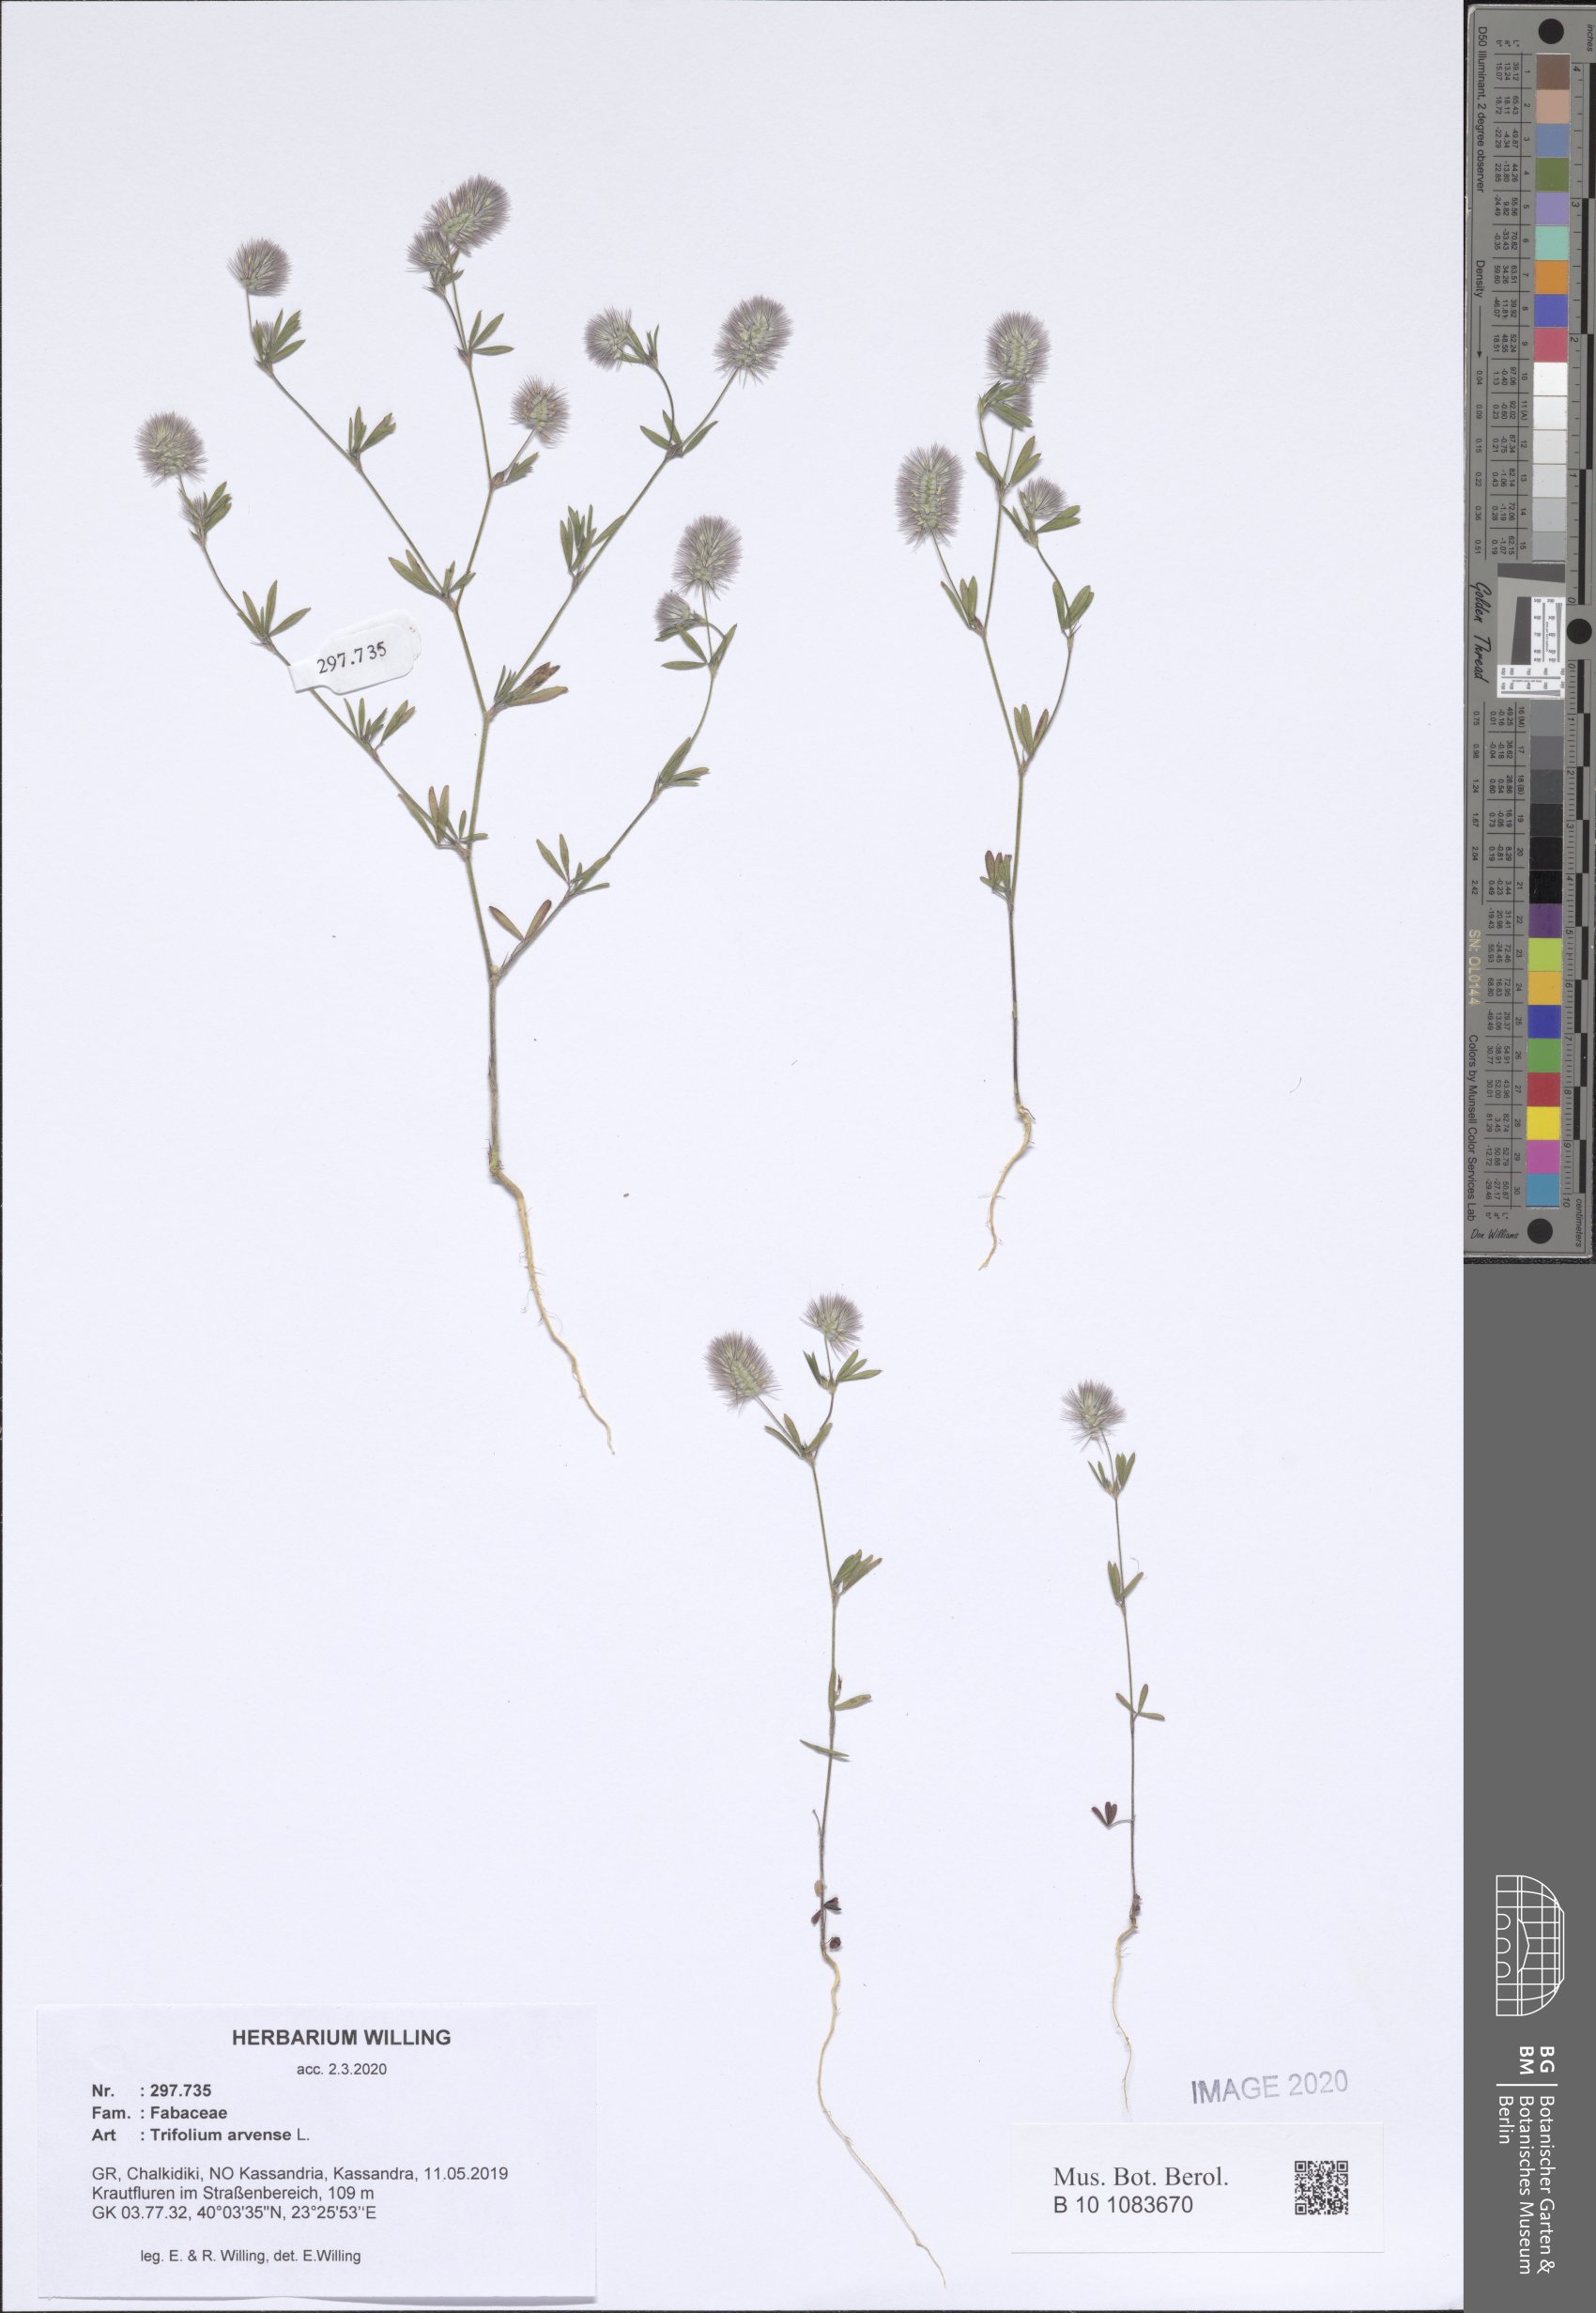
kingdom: Plantae
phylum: Tracheophyta
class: Magnoliopsida
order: Fabales
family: Fabaceae
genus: Trifolium
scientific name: Trifolium arvense
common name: Hare's-foot clover
